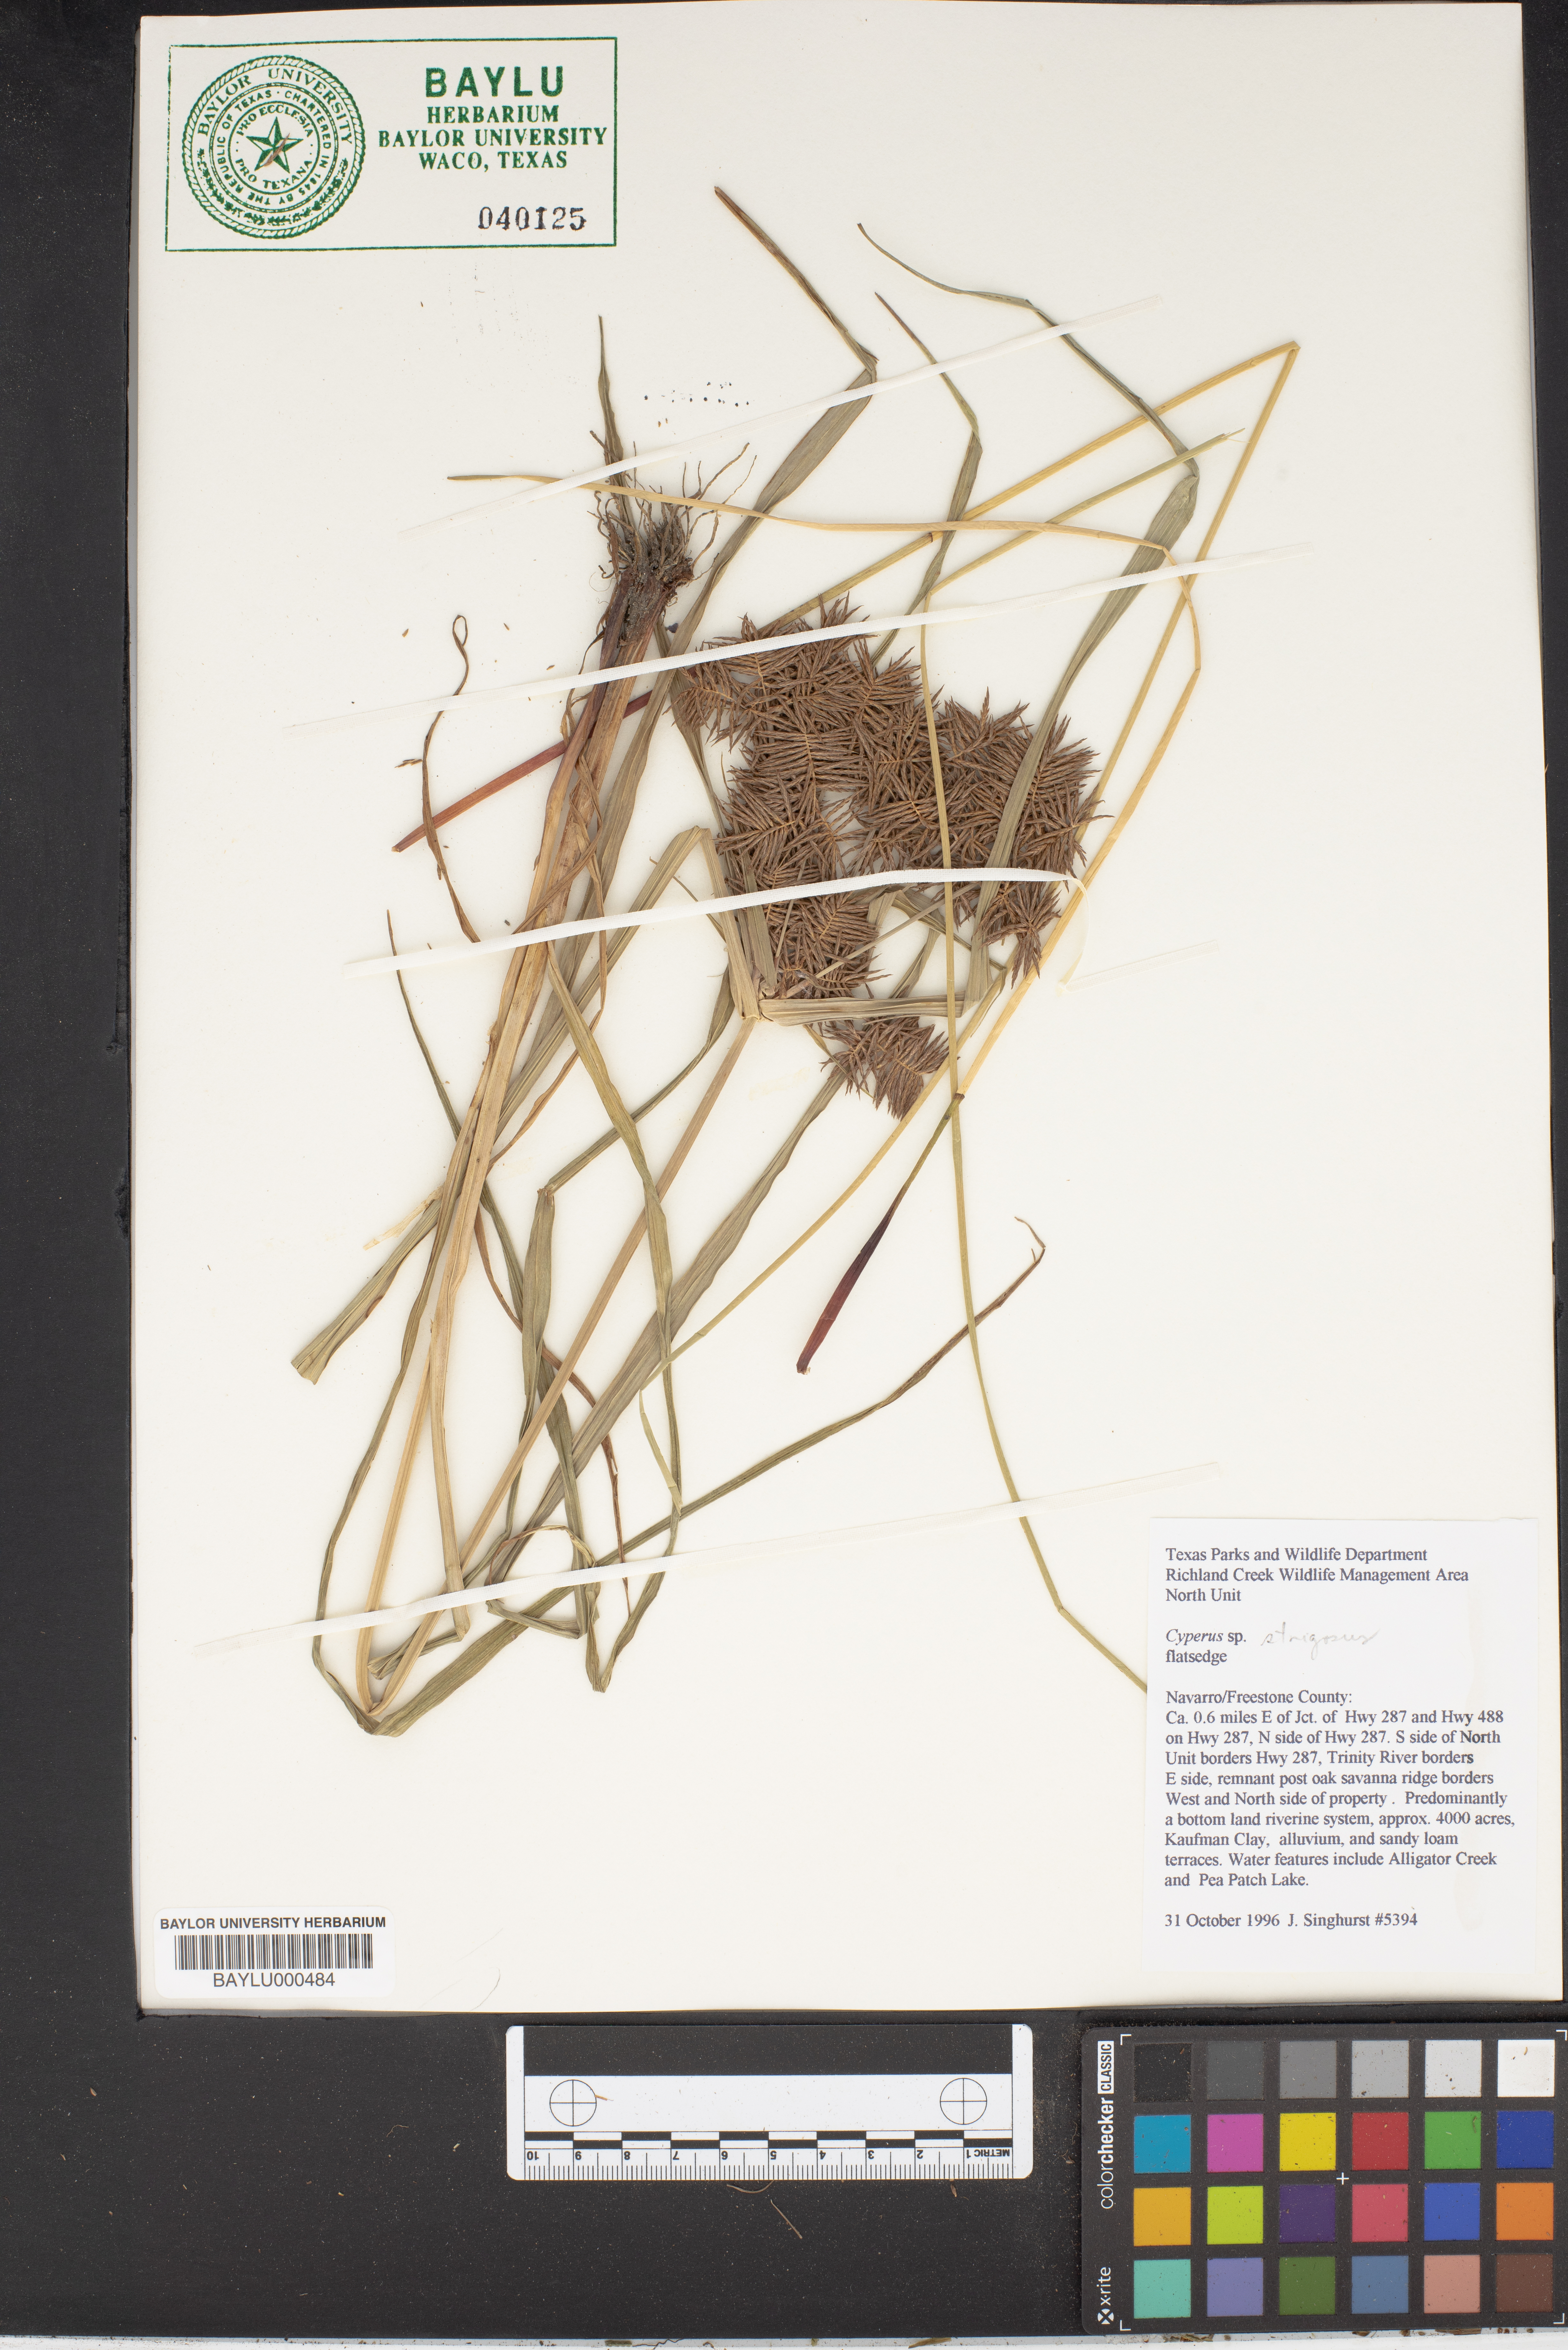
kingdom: Plantae
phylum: Tracheophyta
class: Liliopsida
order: Poales
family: Cyperaceae
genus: Cyperus
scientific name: Cyperus strigosus
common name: False nutsedge
